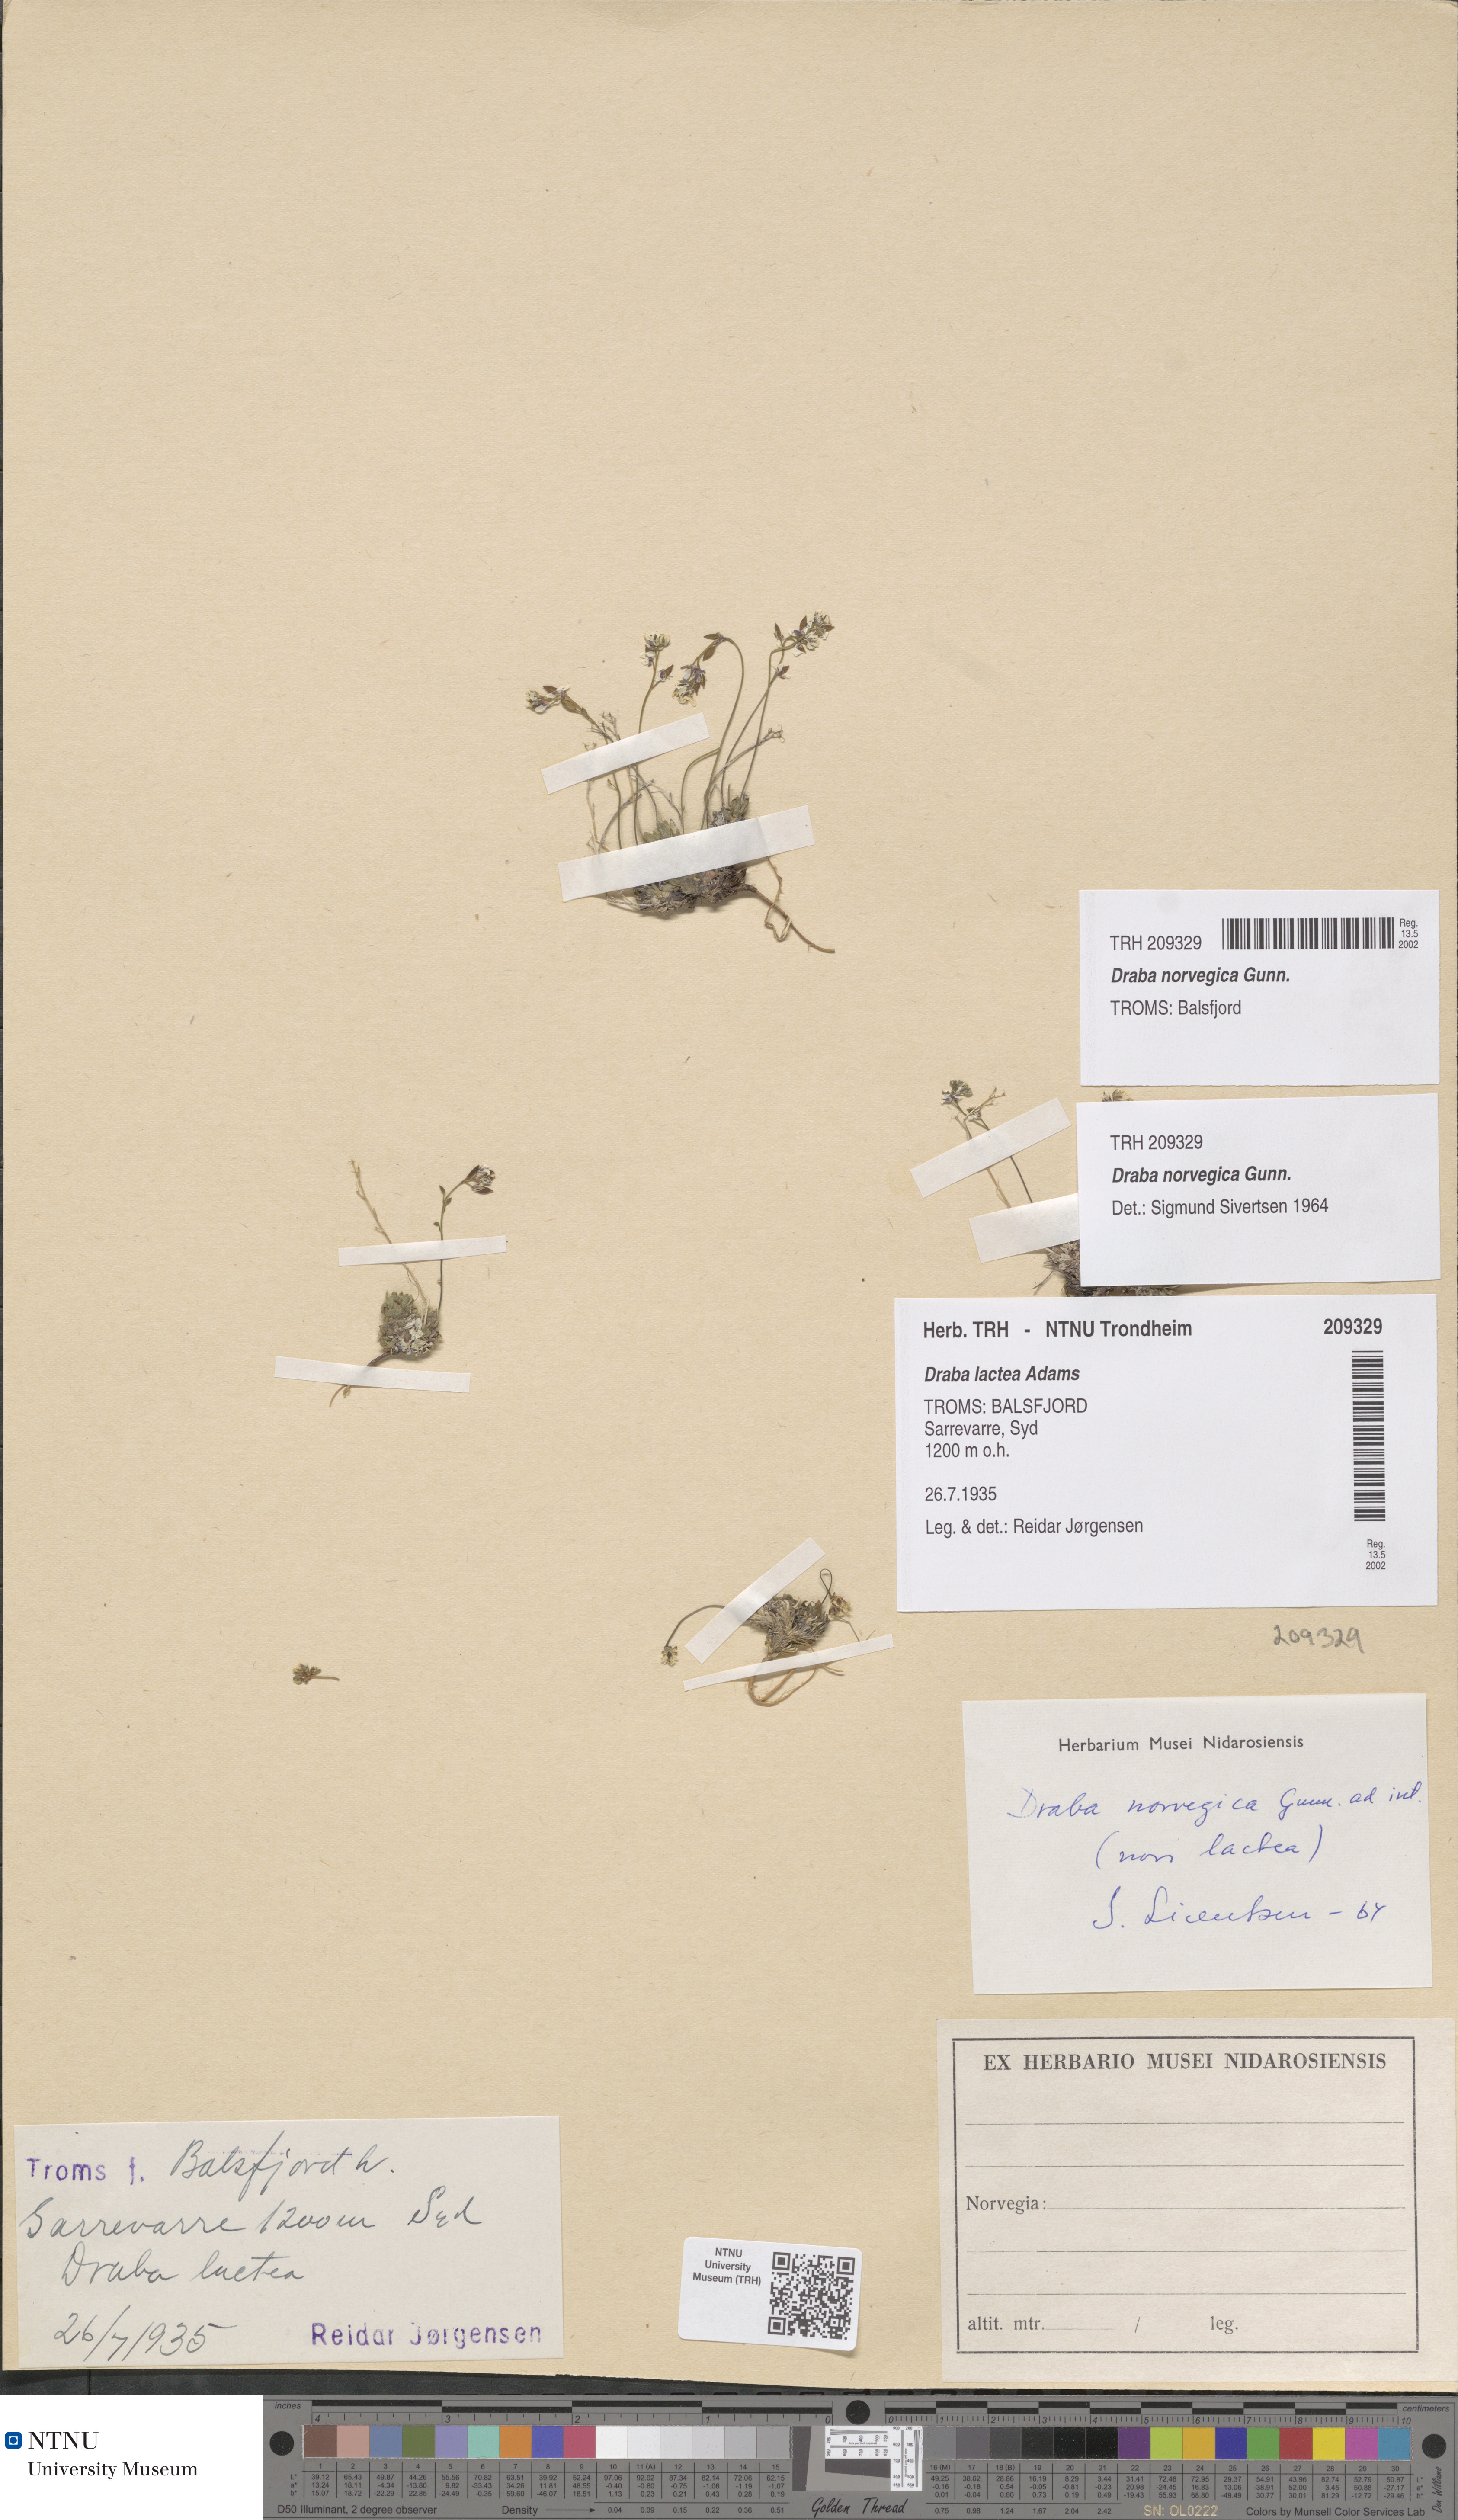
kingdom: Plantae
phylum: Tracheophyta
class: Magnoliopsida
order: Brassicales
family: Brassicaceae
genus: Draba
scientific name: Draba norvegica
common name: Rock whitlowgrass
